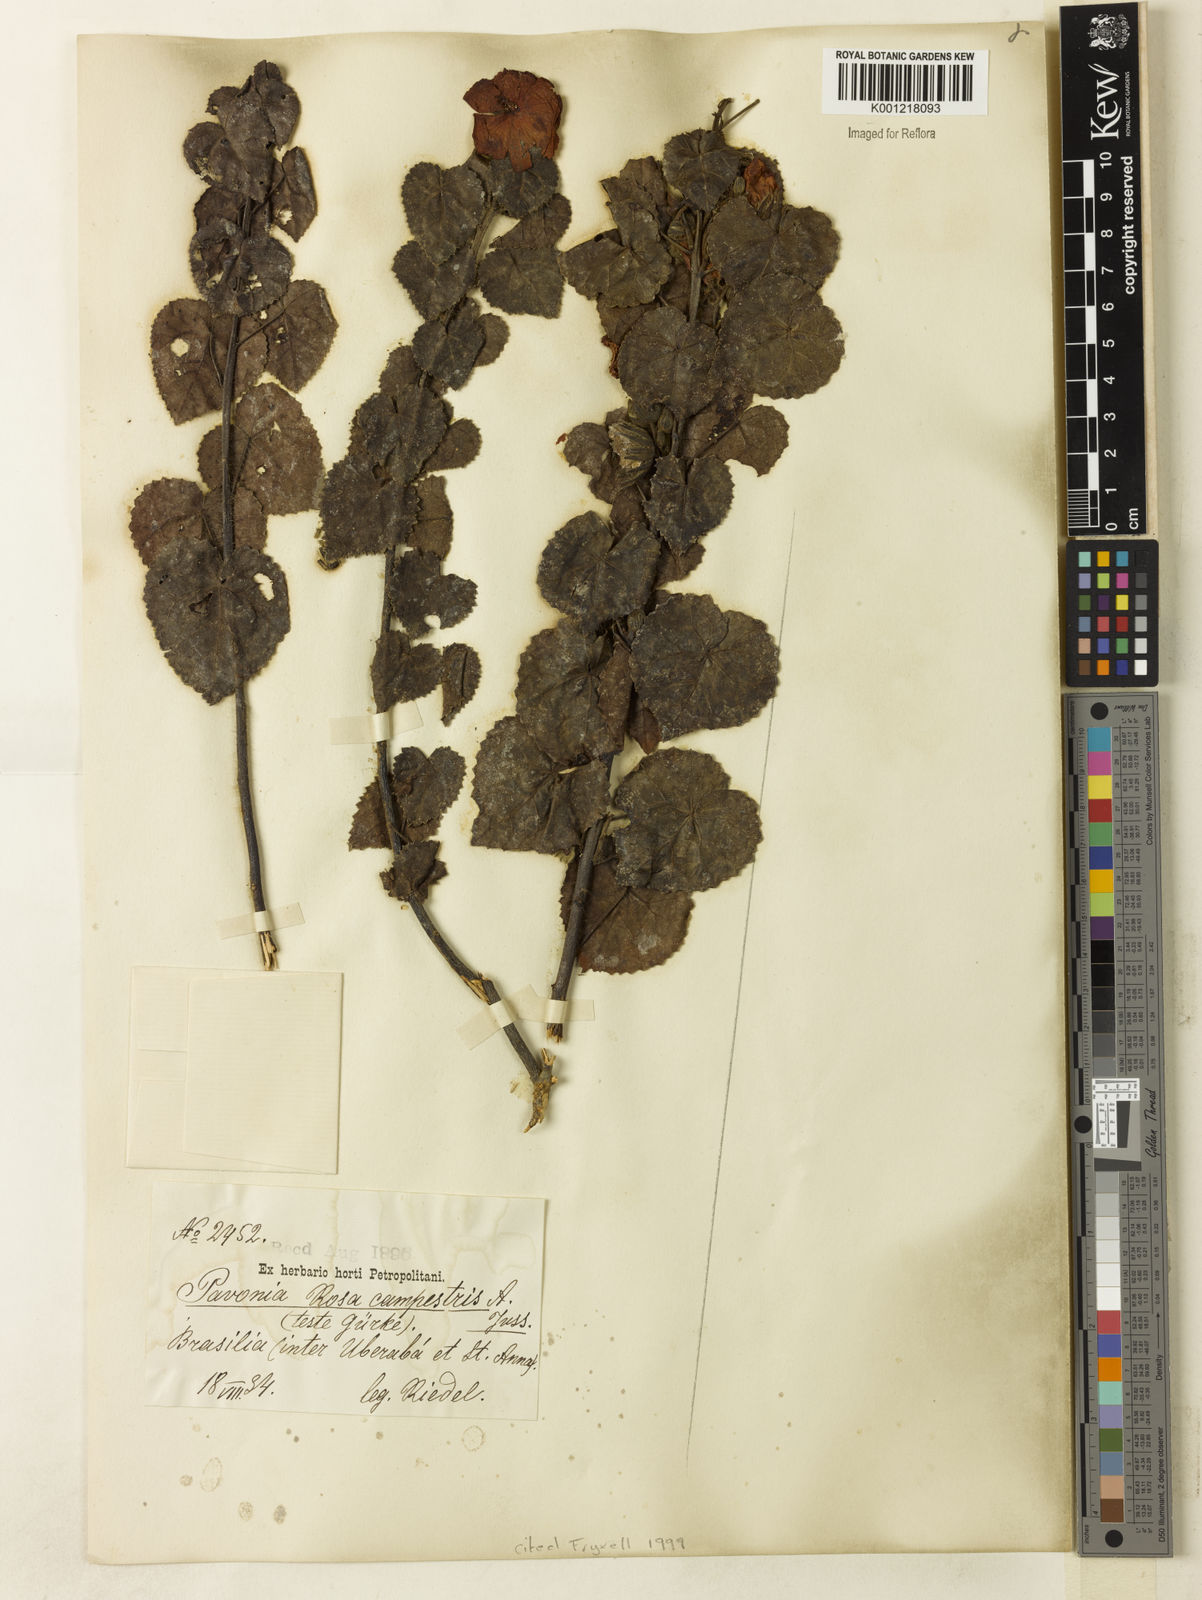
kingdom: Plantae
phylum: Tracheophyta
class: Magnoliopsida
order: Malvales
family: Malvaceae
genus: Pavonia
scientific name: Pavonia rosa-campestris
